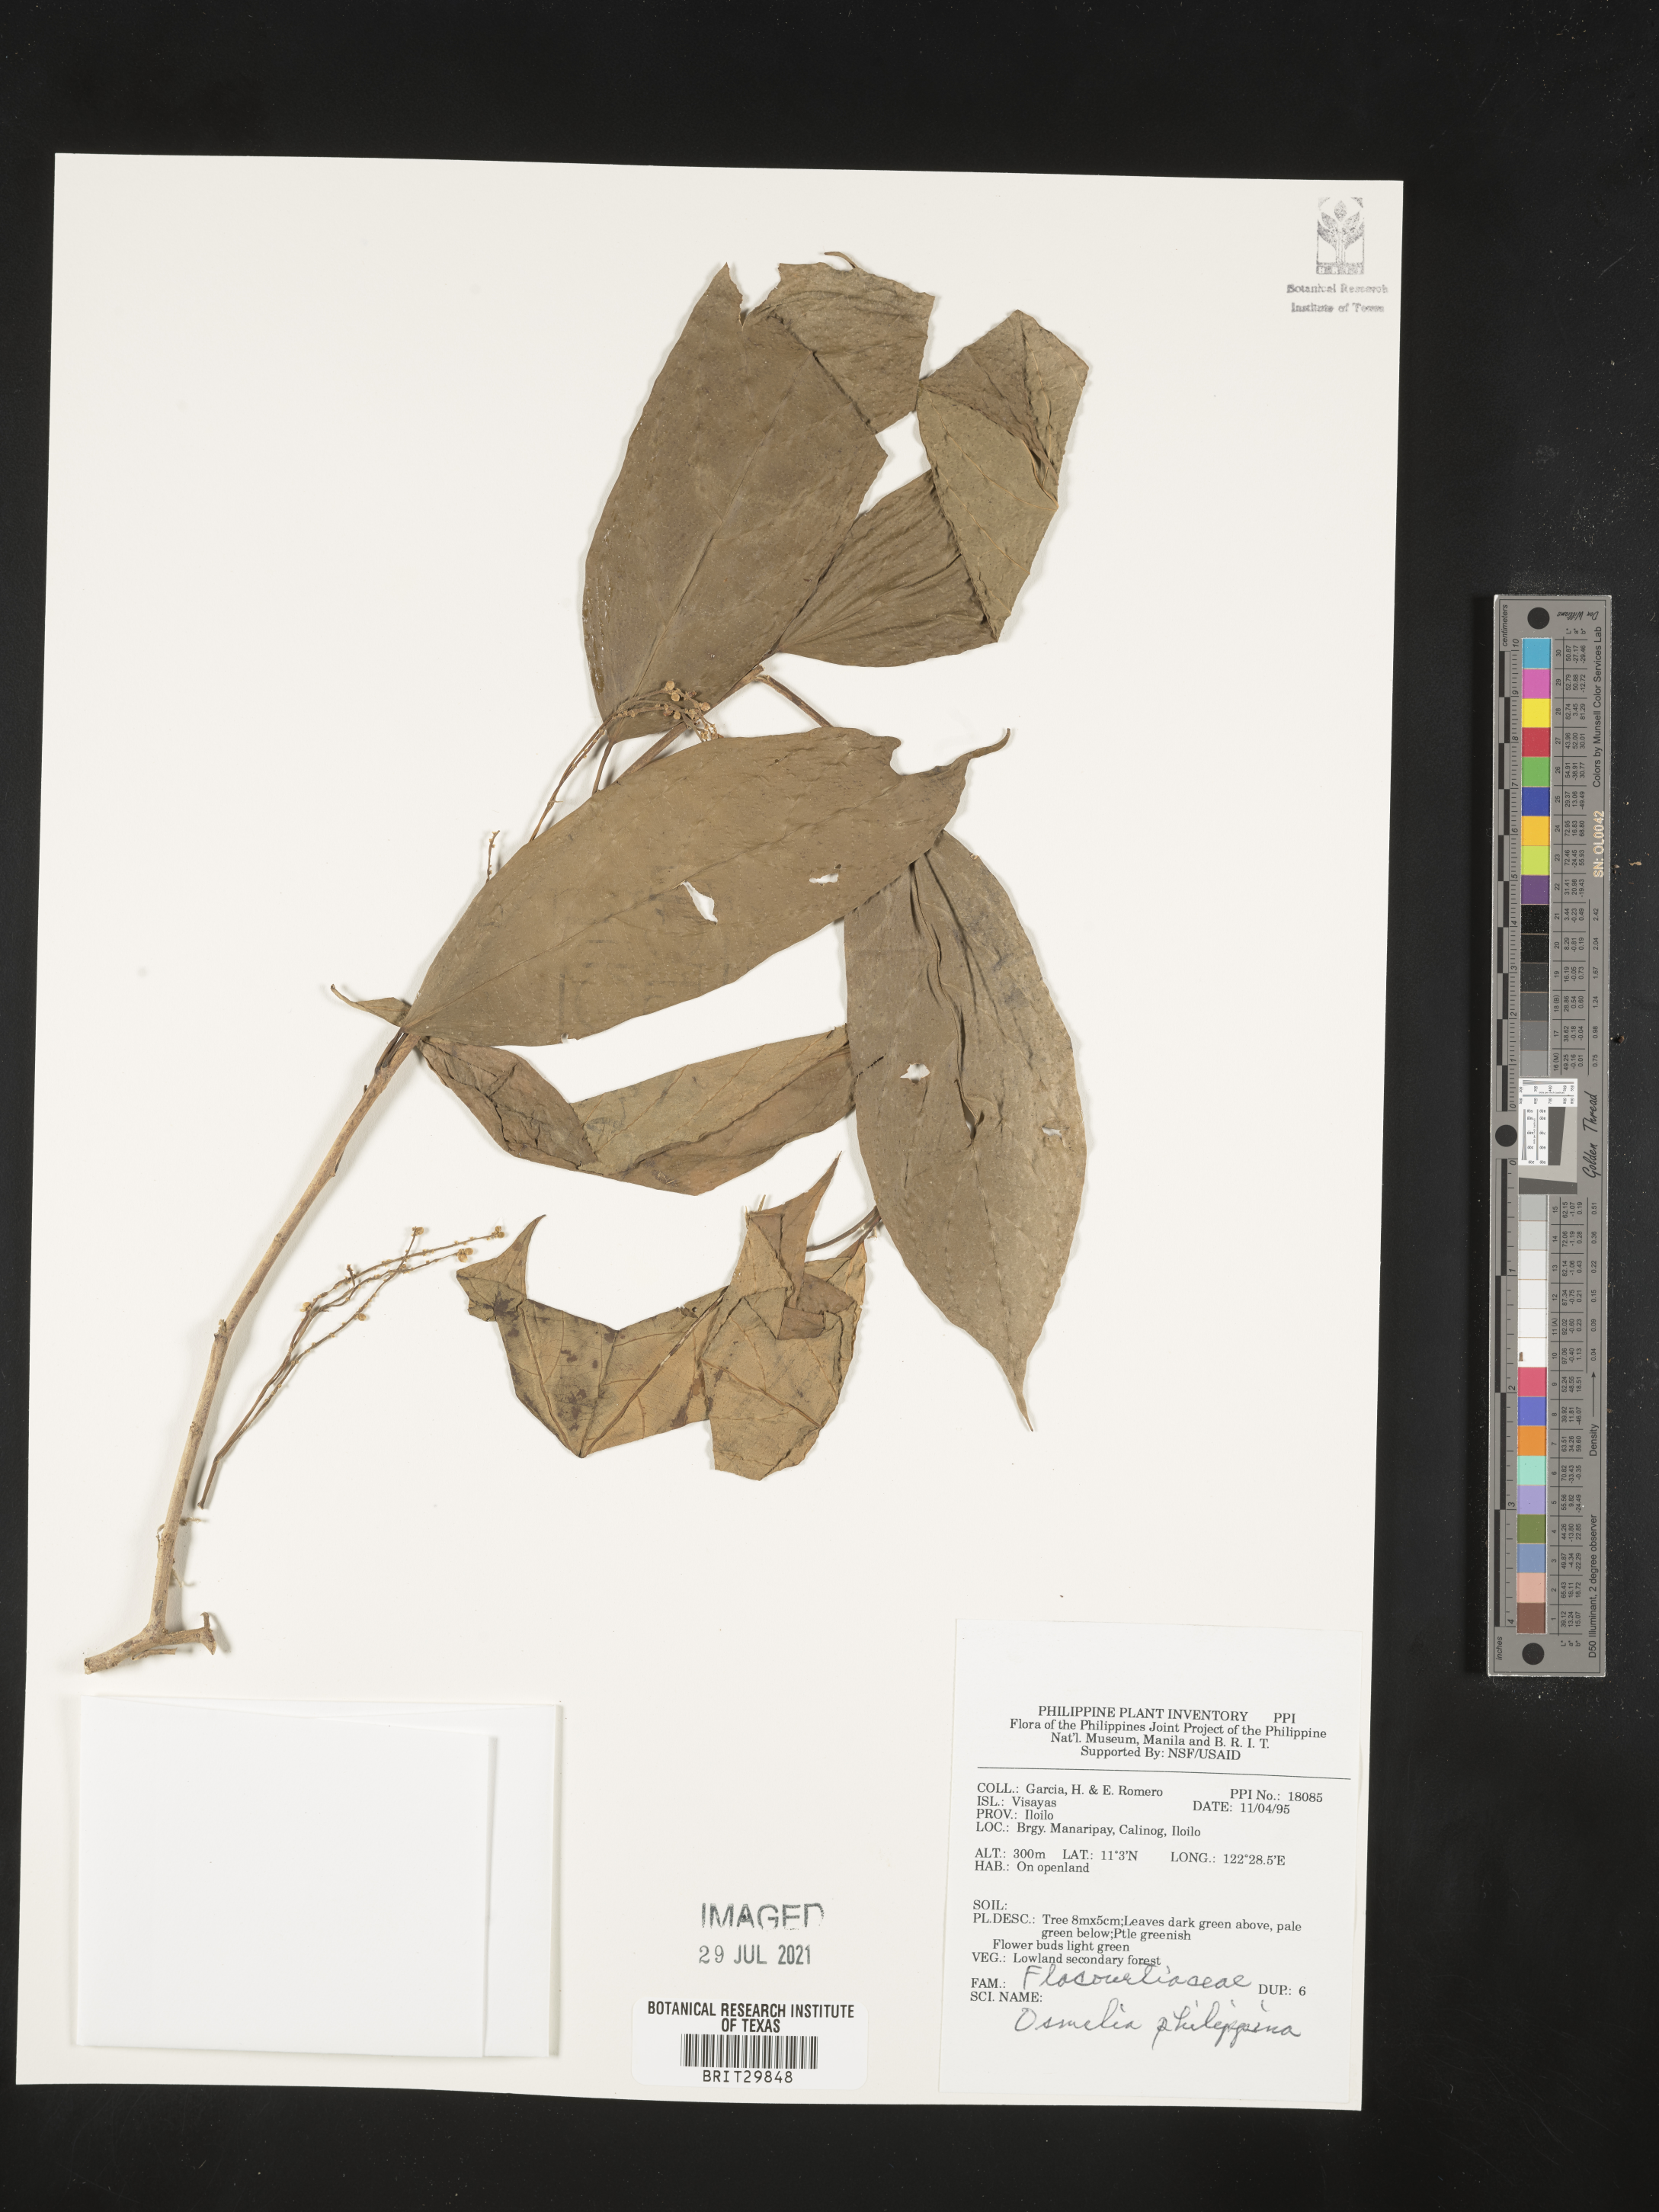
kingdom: Plantae
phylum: Tracheophyta
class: Magnoliopsida
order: Malpighiales
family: Salicaceae
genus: Osmelia
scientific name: Osmelia philippina
